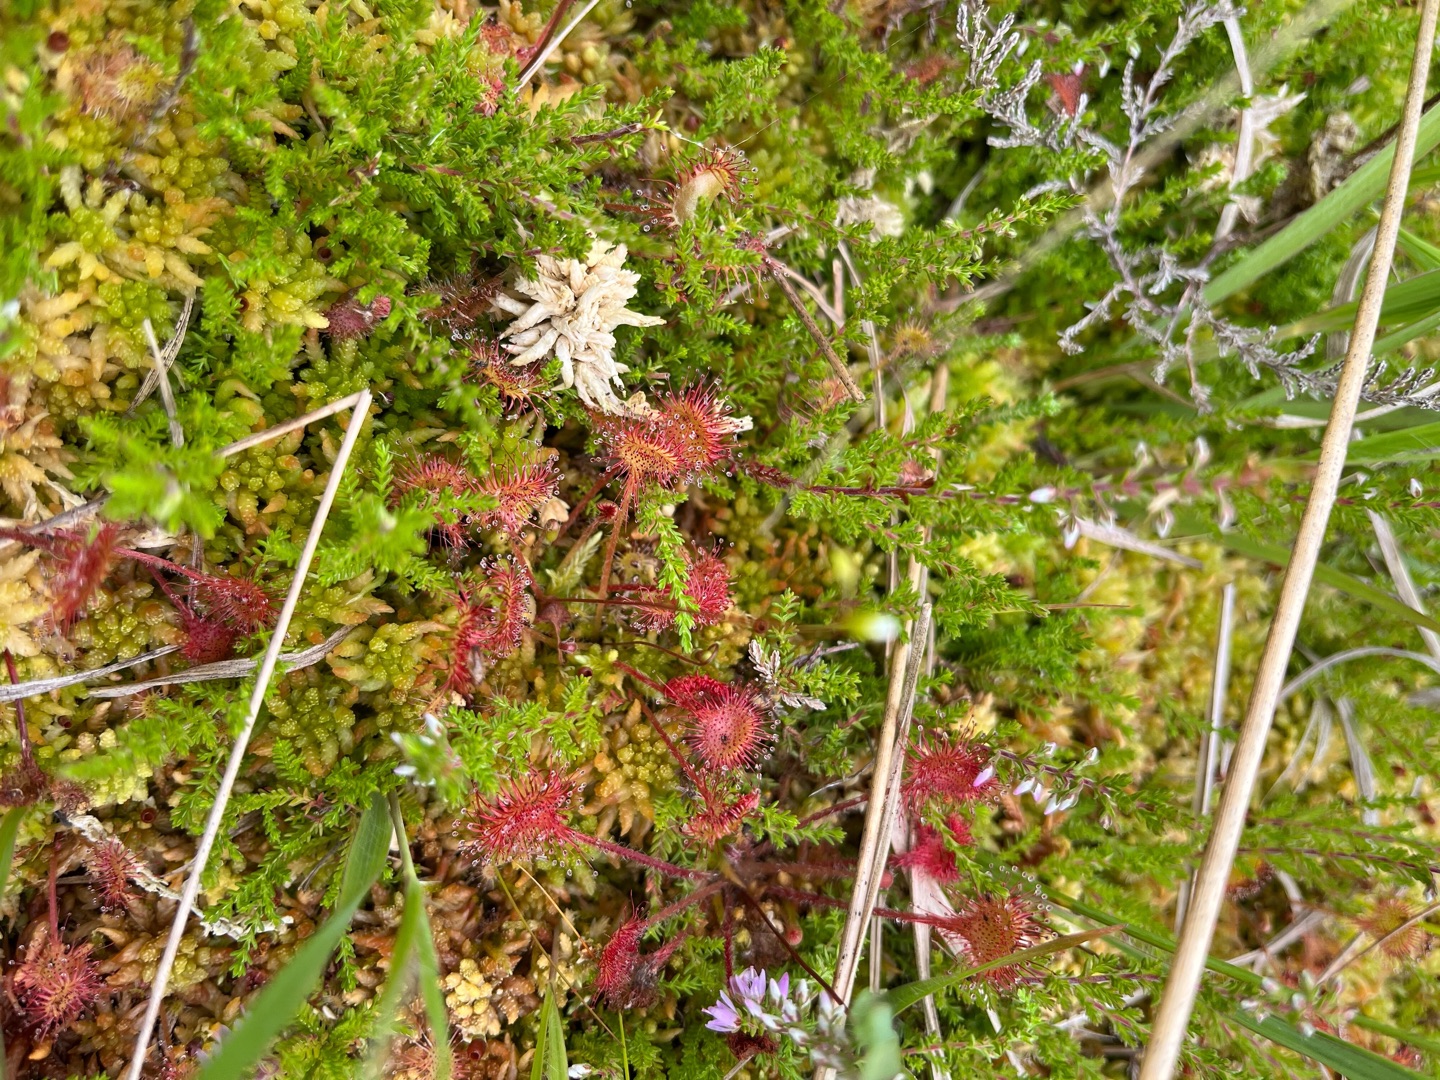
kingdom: Plantae
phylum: Tracheophyta
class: Magnoliopsida
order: Caryophyllales
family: Droseraceae
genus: Drosera
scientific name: Drosera rotundifolia
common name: Rundbladet soldug
